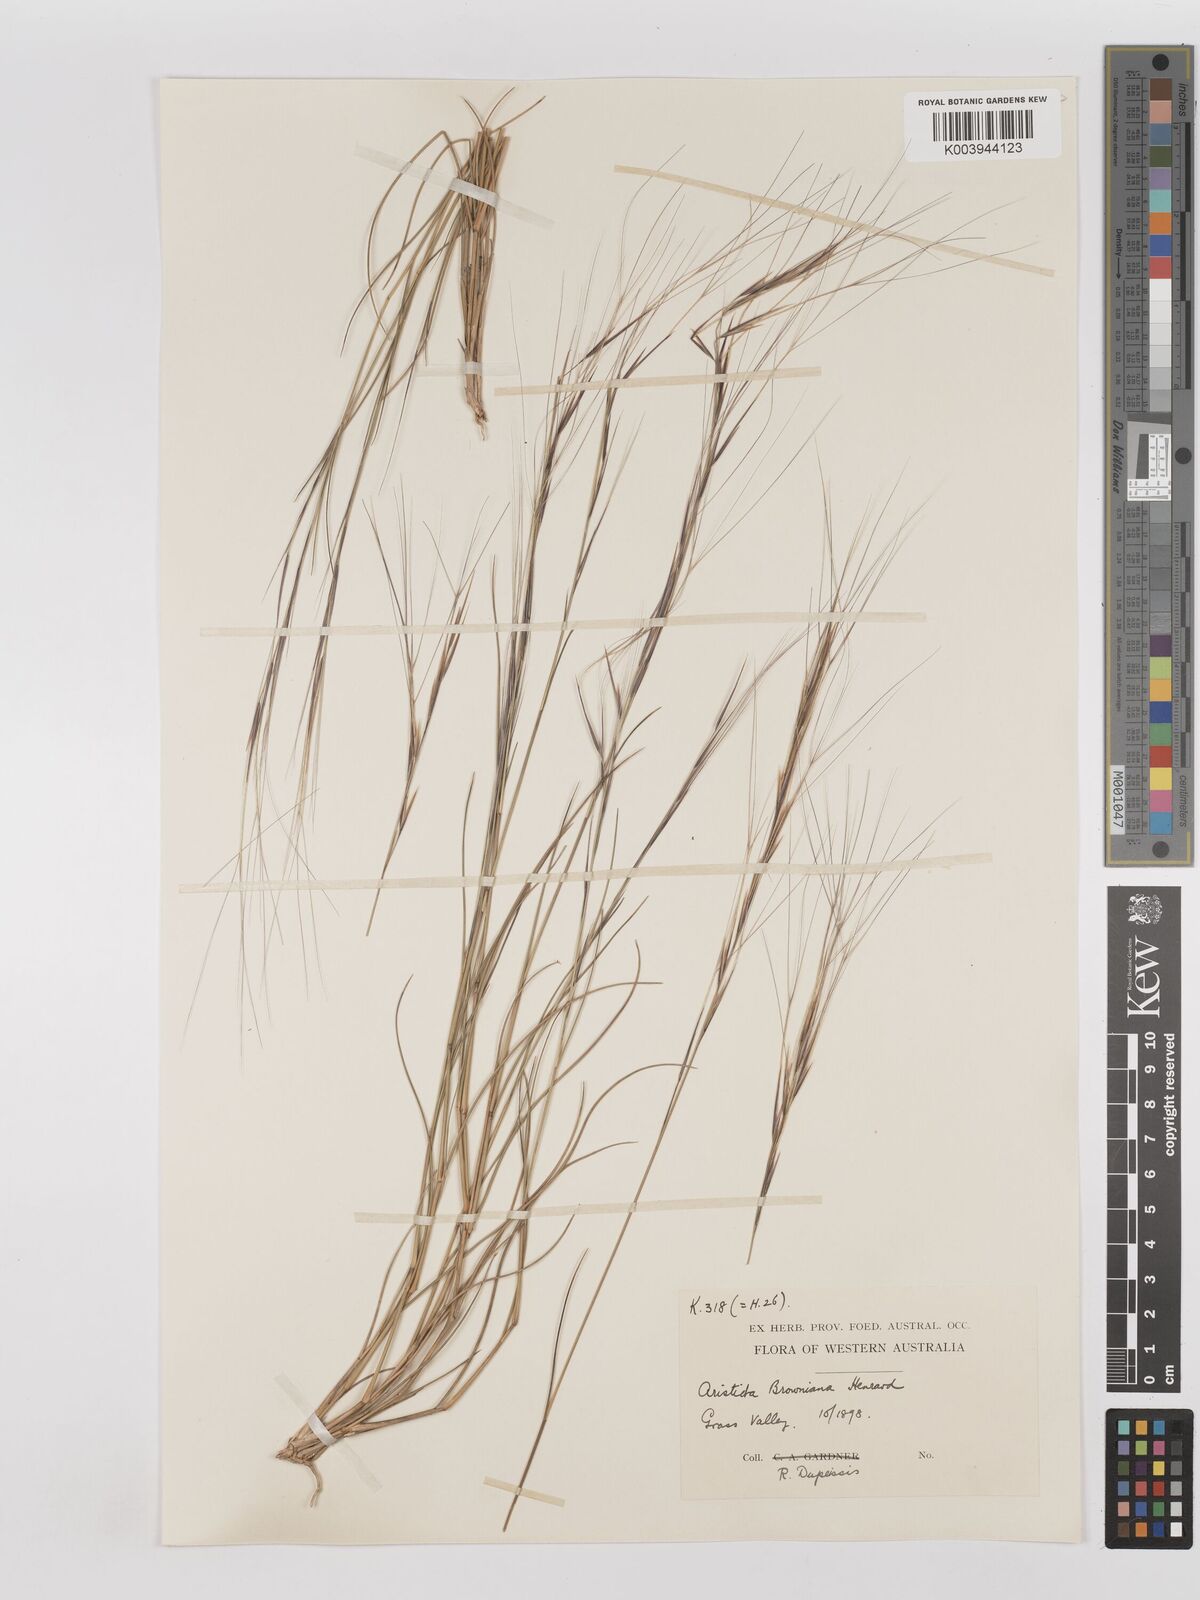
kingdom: Plantae
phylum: Tracheophyta
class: Liliopsida
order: Poales
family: Poaceae
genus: Aristida
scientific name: Aristida holathera
